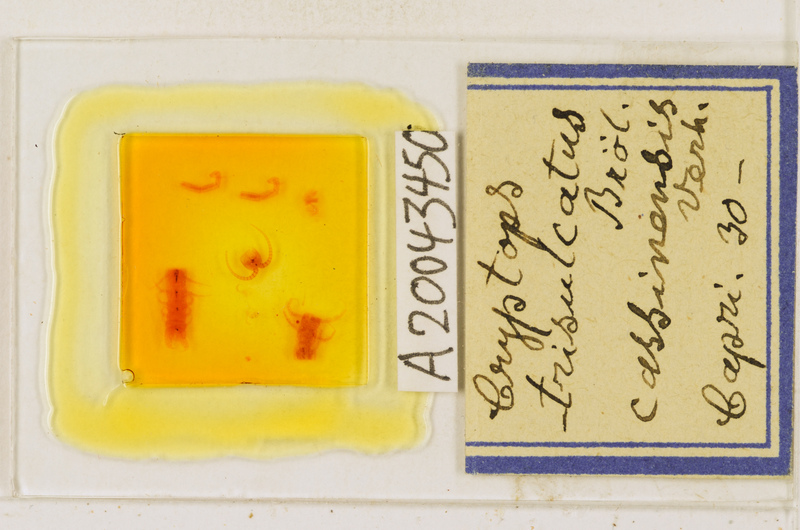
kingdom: Animalia
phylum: Arthropoda
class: Chilopoda
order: Scolopendromorpha
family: Cryptopidae
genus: Cryptops
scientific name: Cryptops trisulcatus
